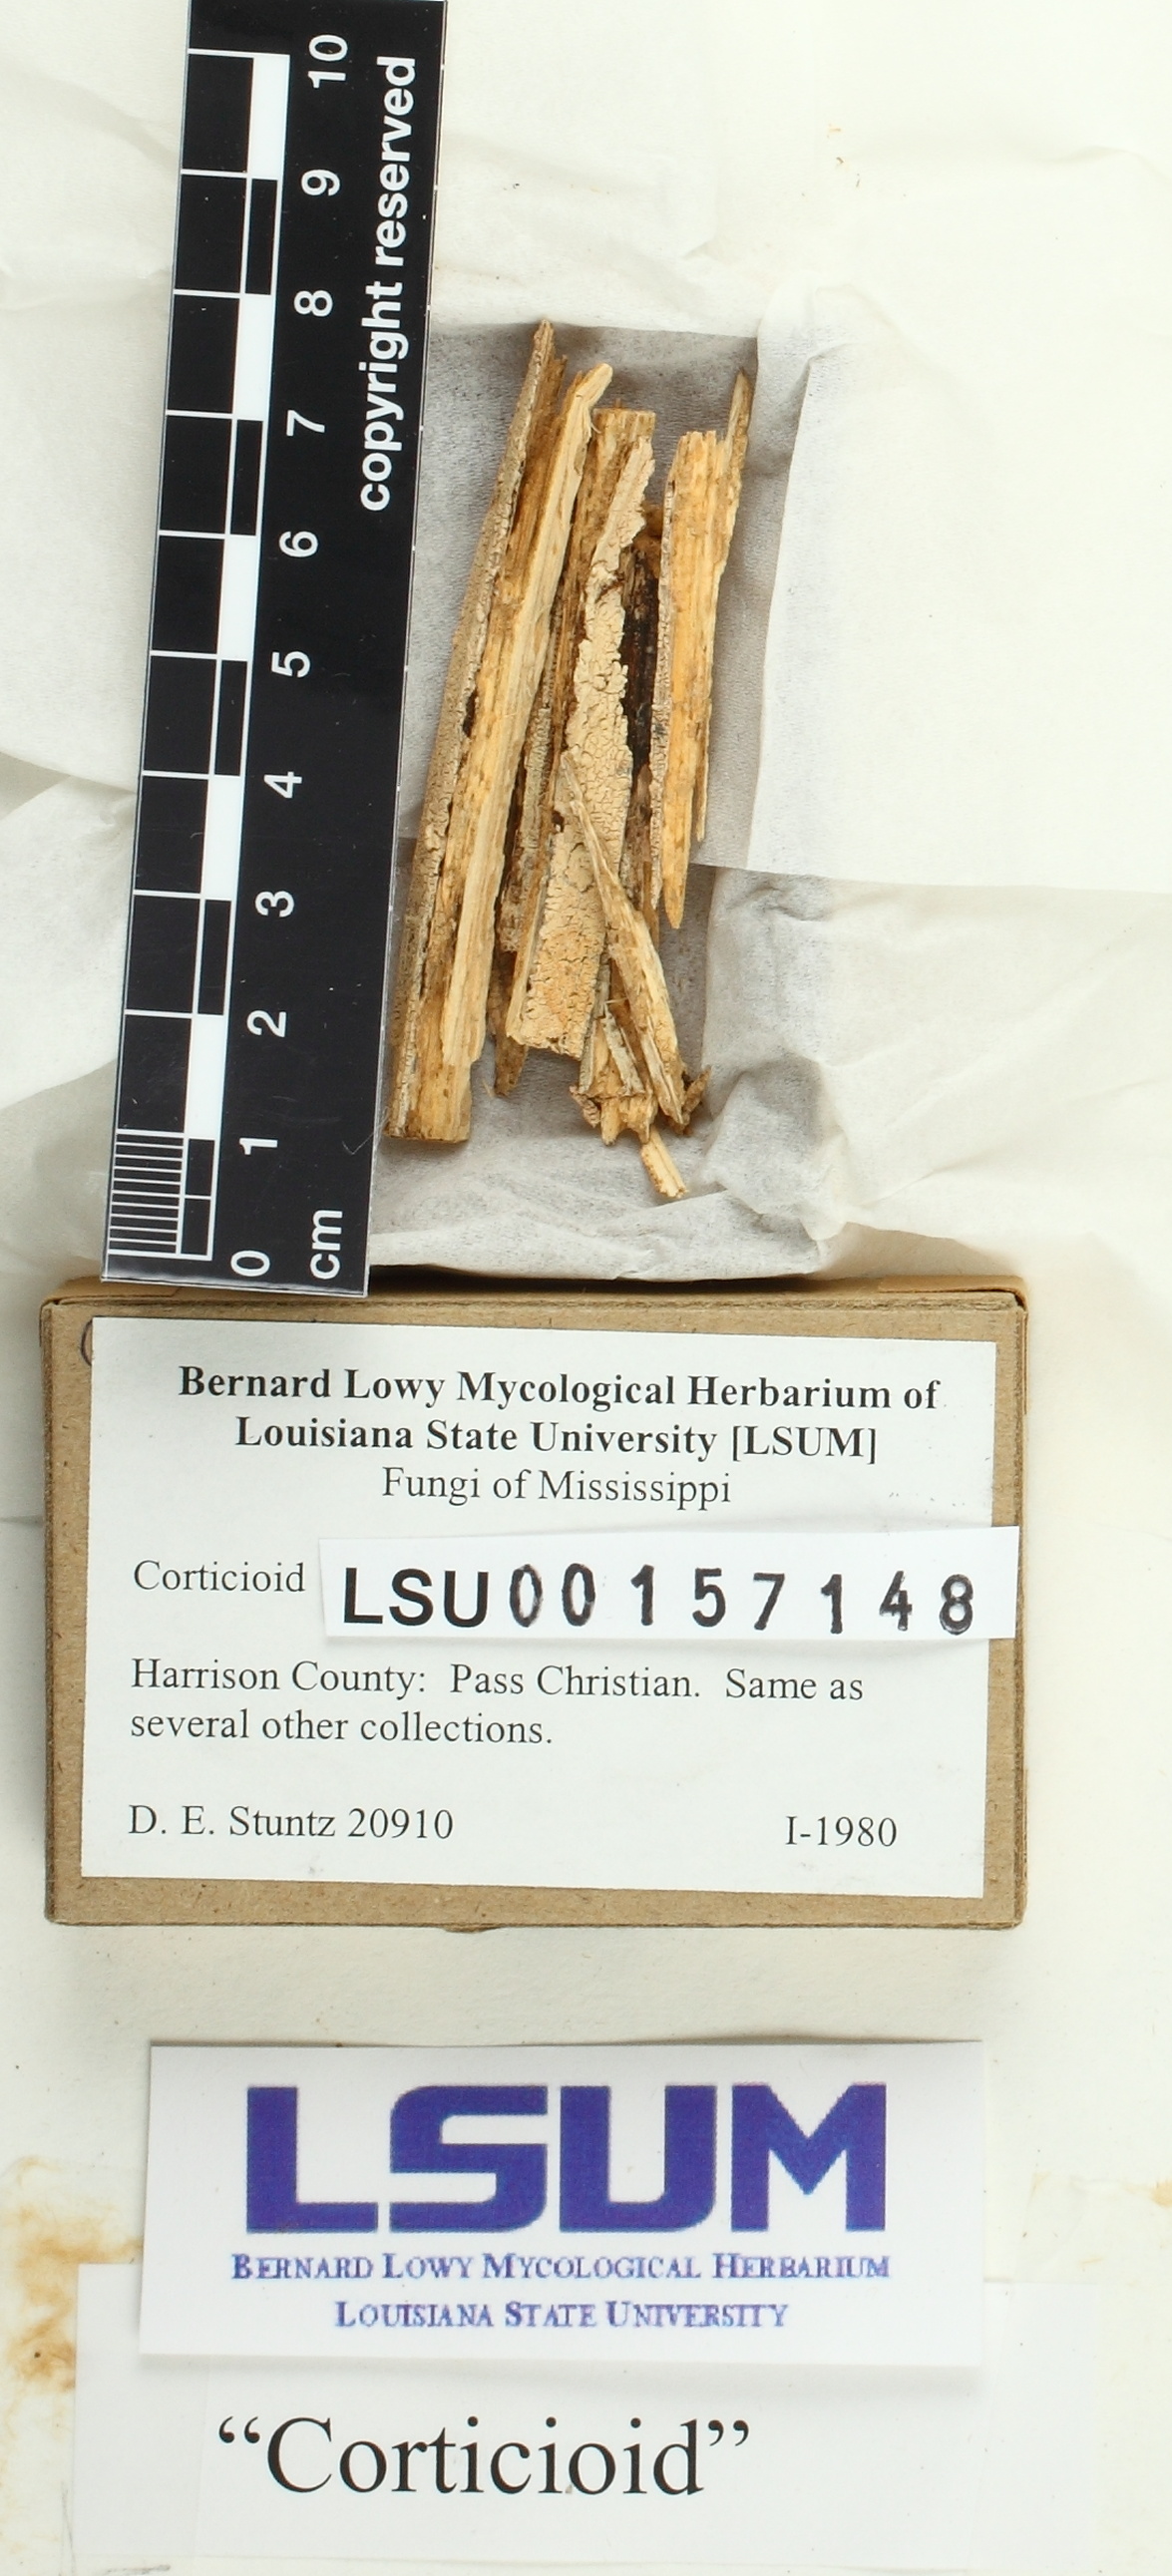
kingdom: Fungi
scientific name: Fungi
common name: Fungi
